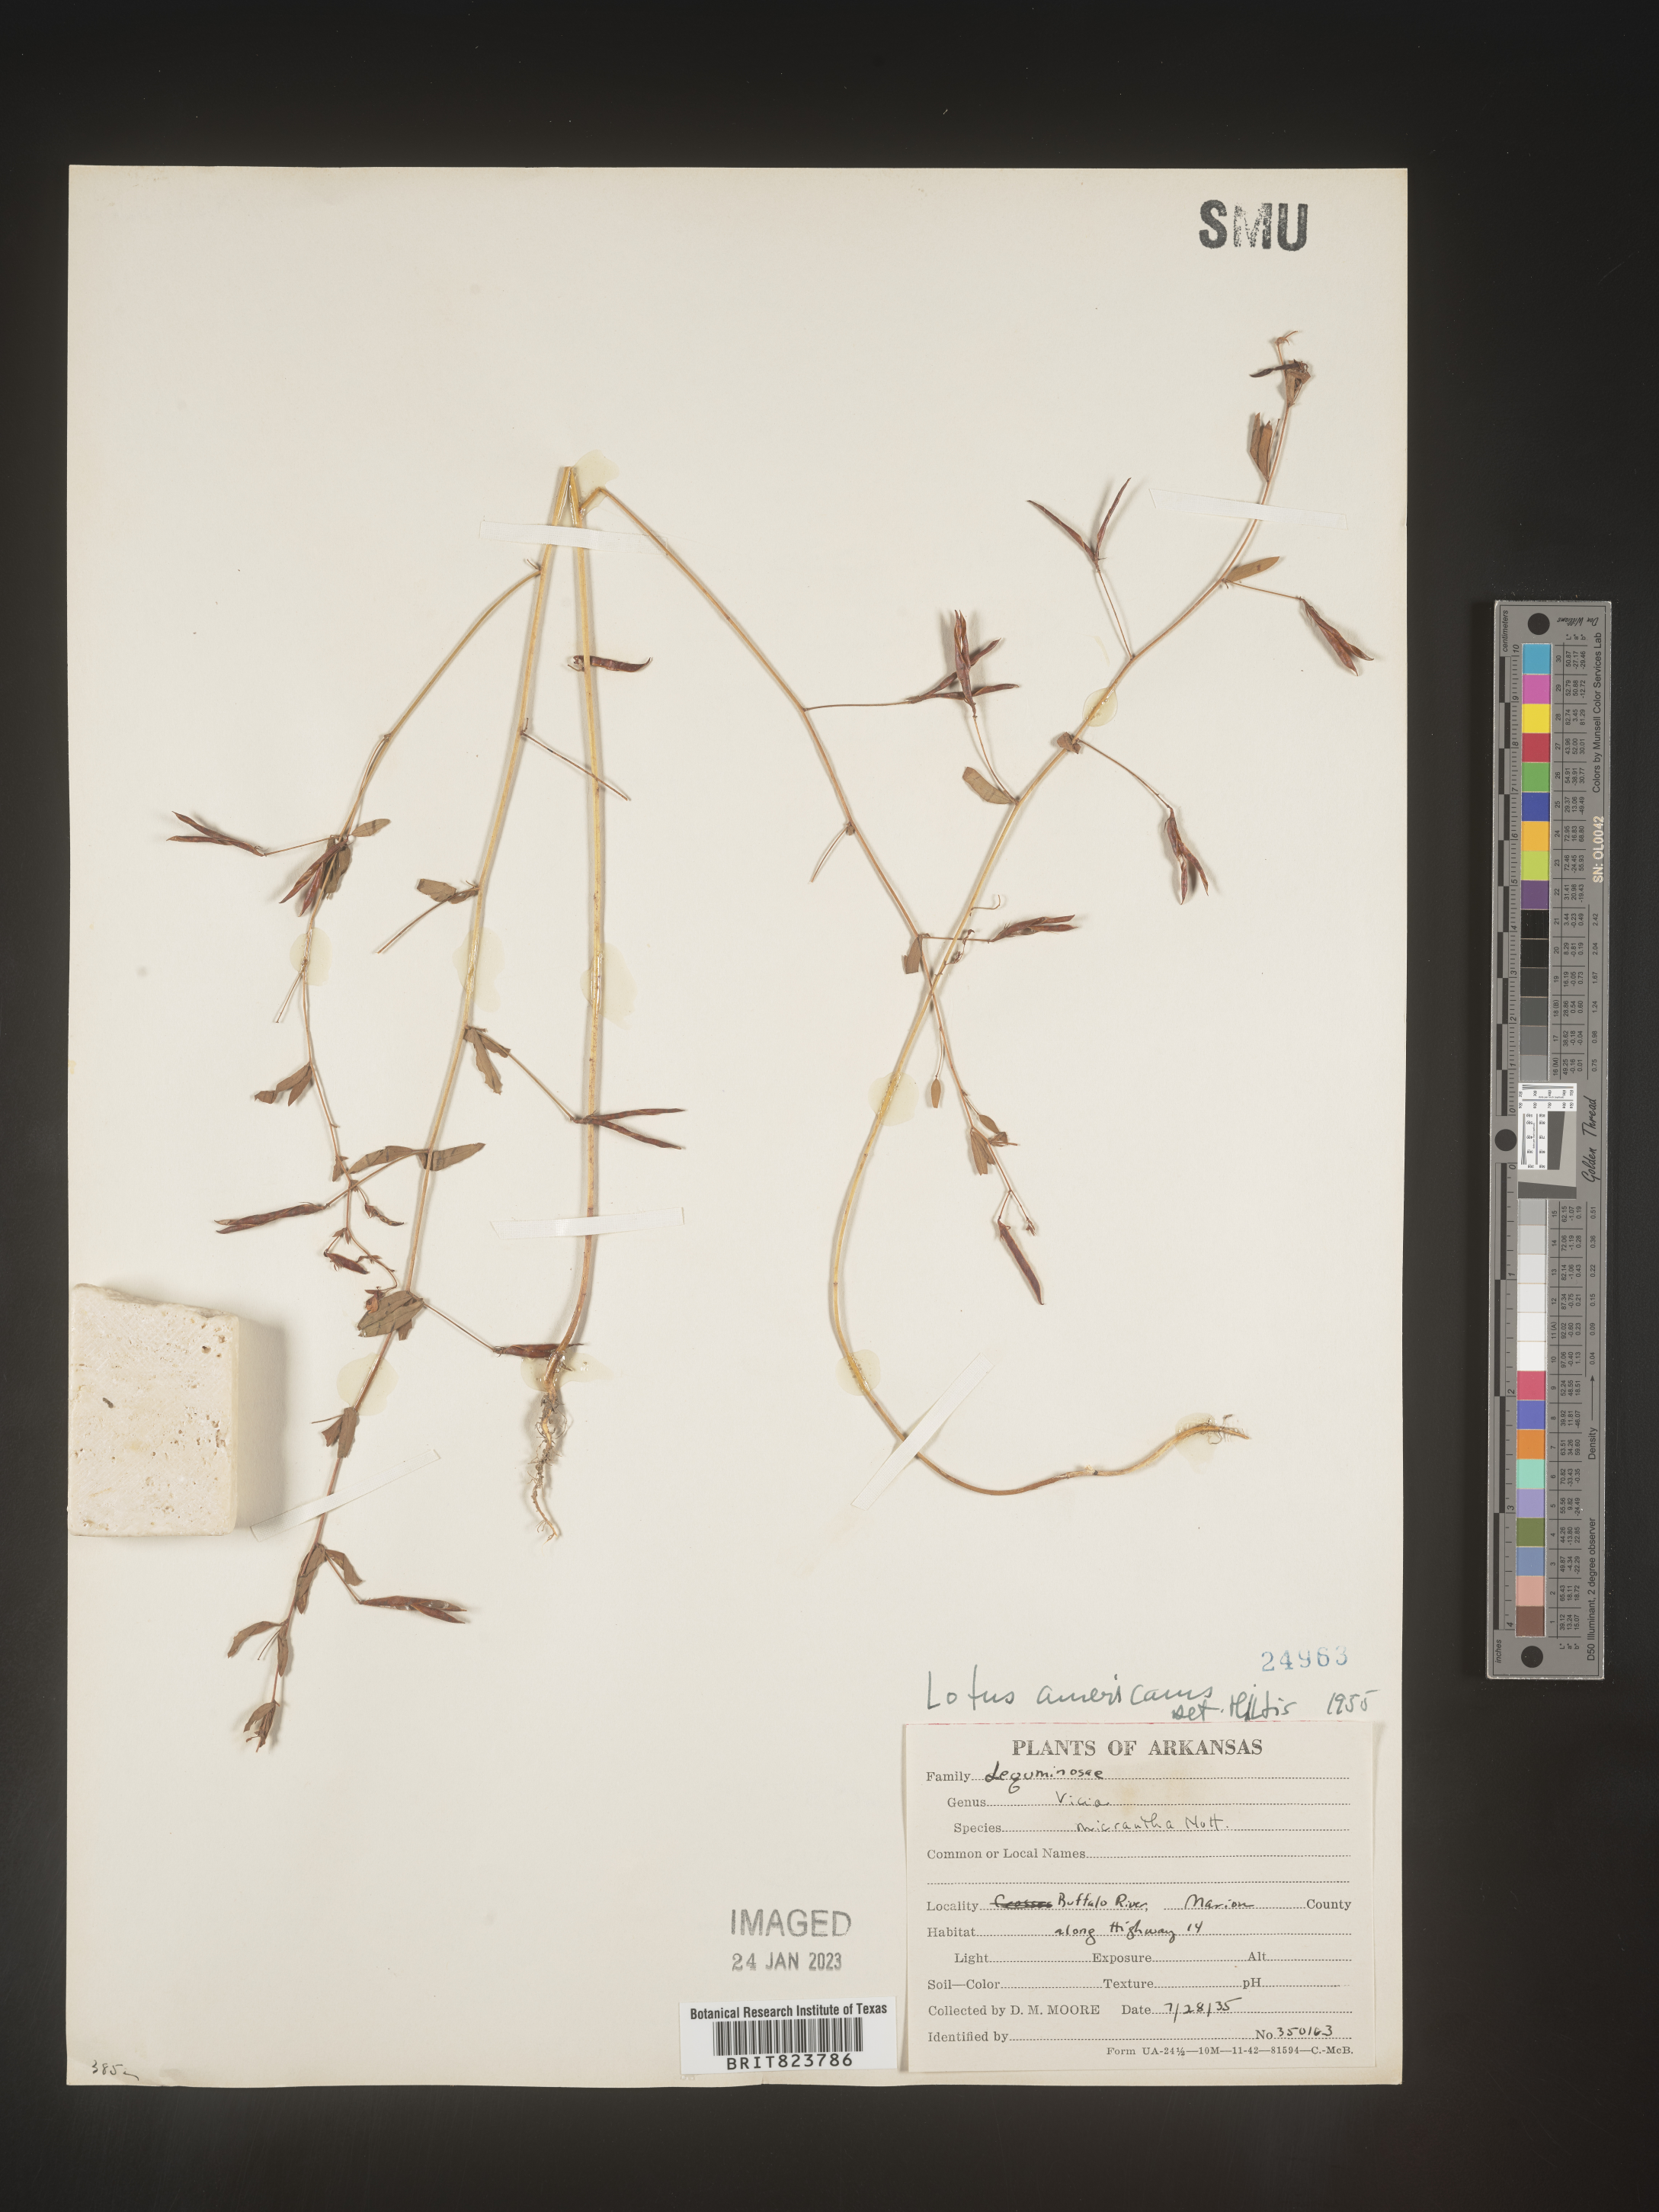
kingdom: Plantae
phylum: Tracheophyta
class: Magnoliopsida
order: Fabales
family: Fabaceae
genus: Acmispon
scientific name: Acmispon americanus
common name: American bird's-foot trefoil
